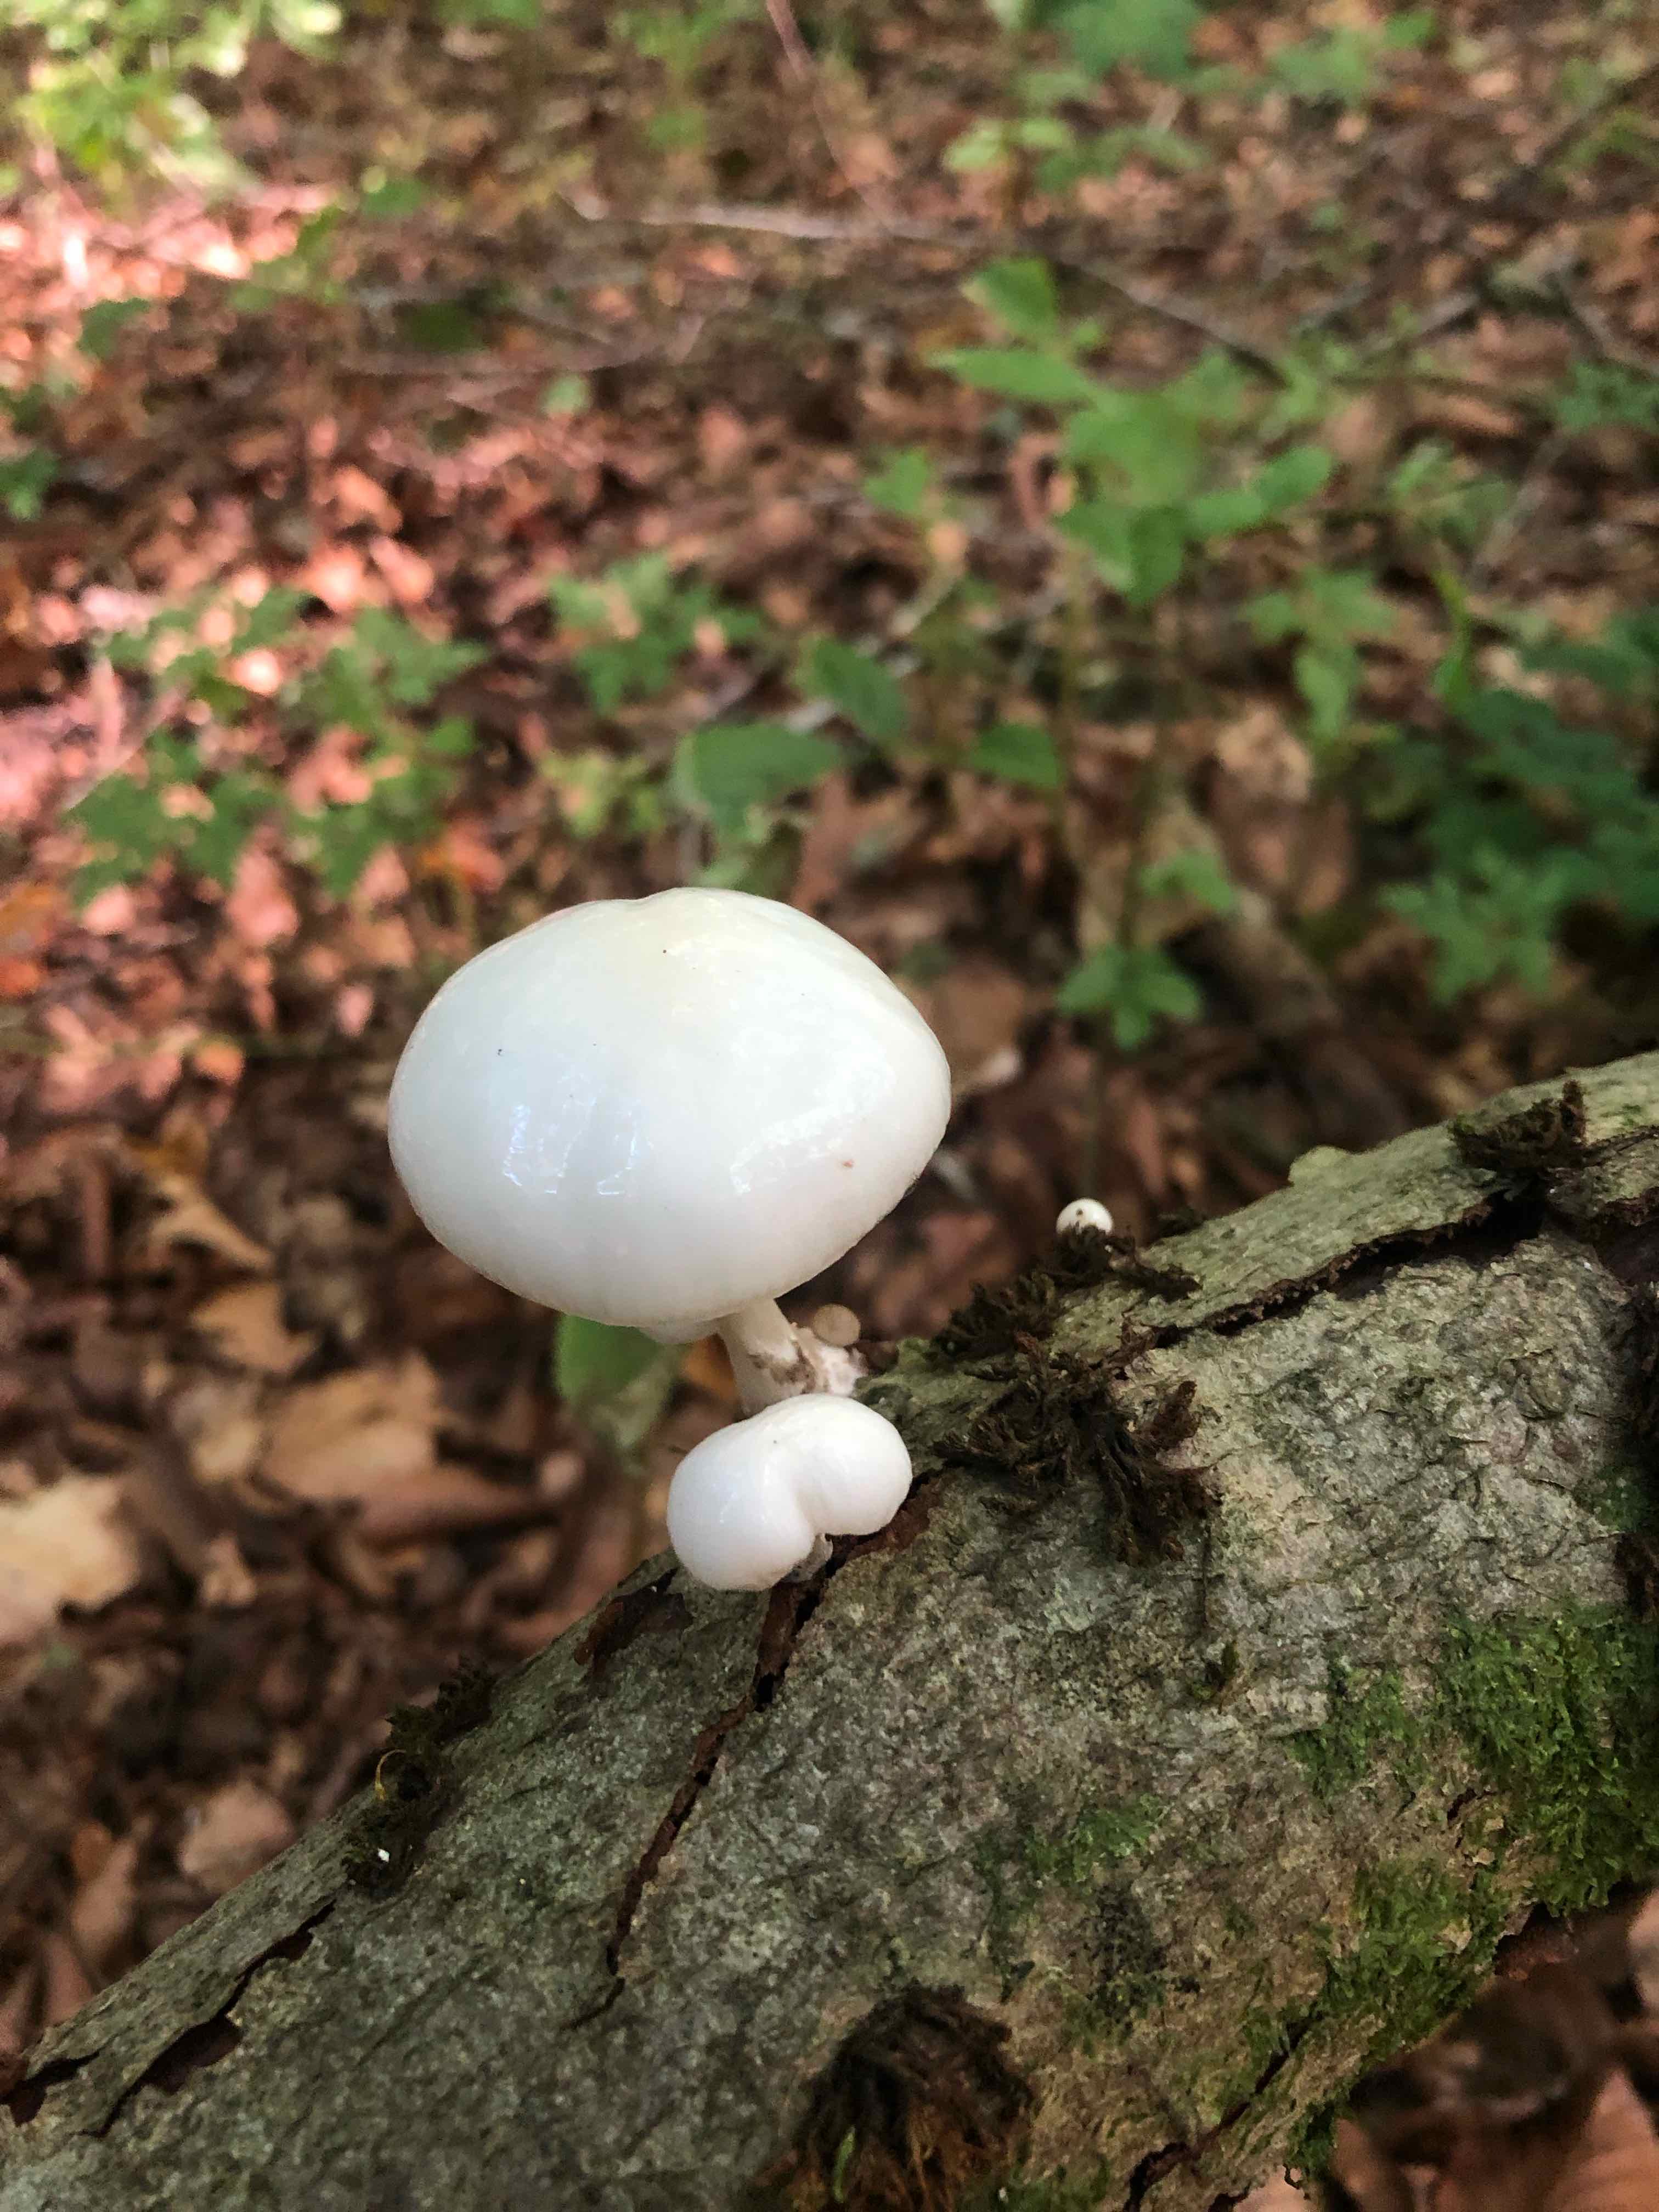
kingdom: Fungi
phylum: Basidiomycota
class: Agaricomycetes
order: Agaricales
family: Physalacriaceae
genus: Mucidula
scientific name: Mucidula mucida
